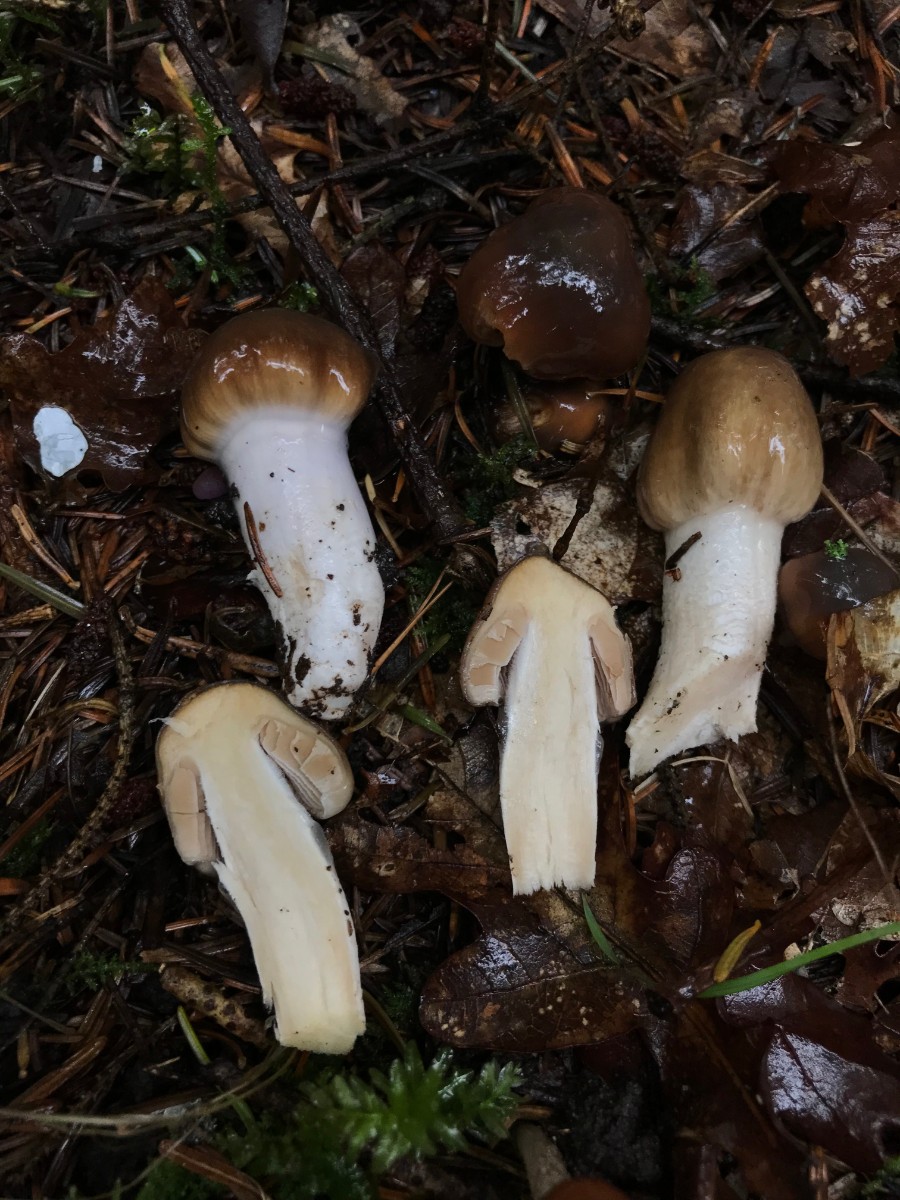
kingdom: Fungi
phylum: Basidiomycota
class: Agaricomycetes
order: Agaricales
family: Cortinariaceae
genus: Cortinarius
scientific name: Cortinarius stillatitius
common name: honningduftende slørhat
